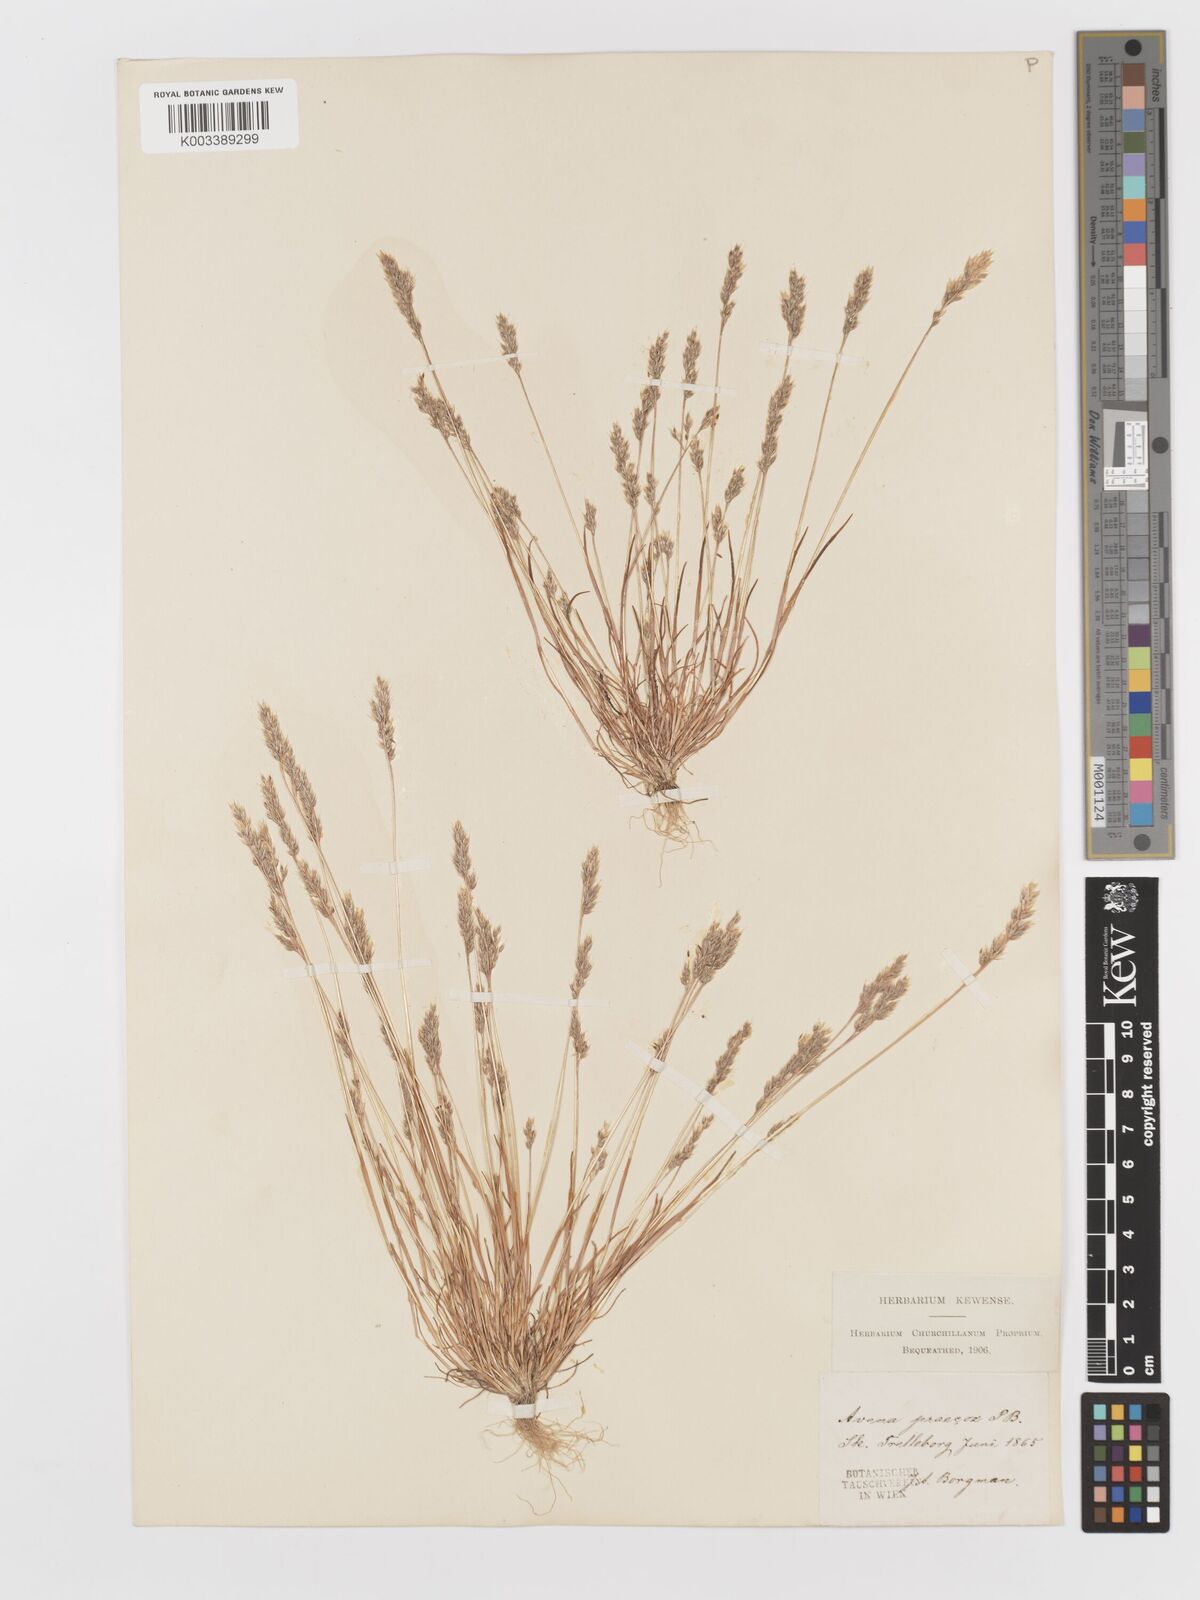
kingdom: Plantae
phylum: Tracheophyta
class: Liliopsida
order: Poales
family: Poaceae
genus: Aira
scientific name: Aira praecox
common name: Early hair-grass
